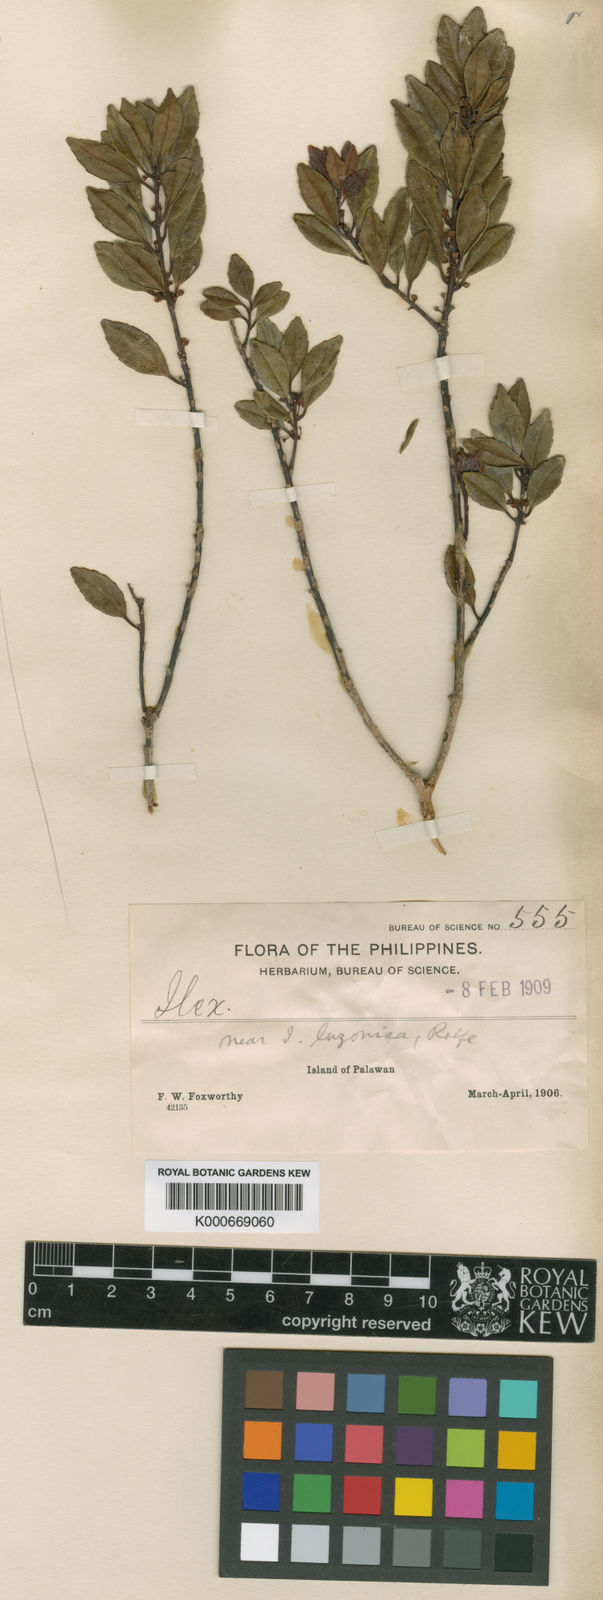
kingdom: Plantae
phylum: Tracheophyta
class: Magnoliopsida
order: Aquifoliales
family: Aquifoliaceae
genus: Ilex
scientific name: Ilex palawanica
